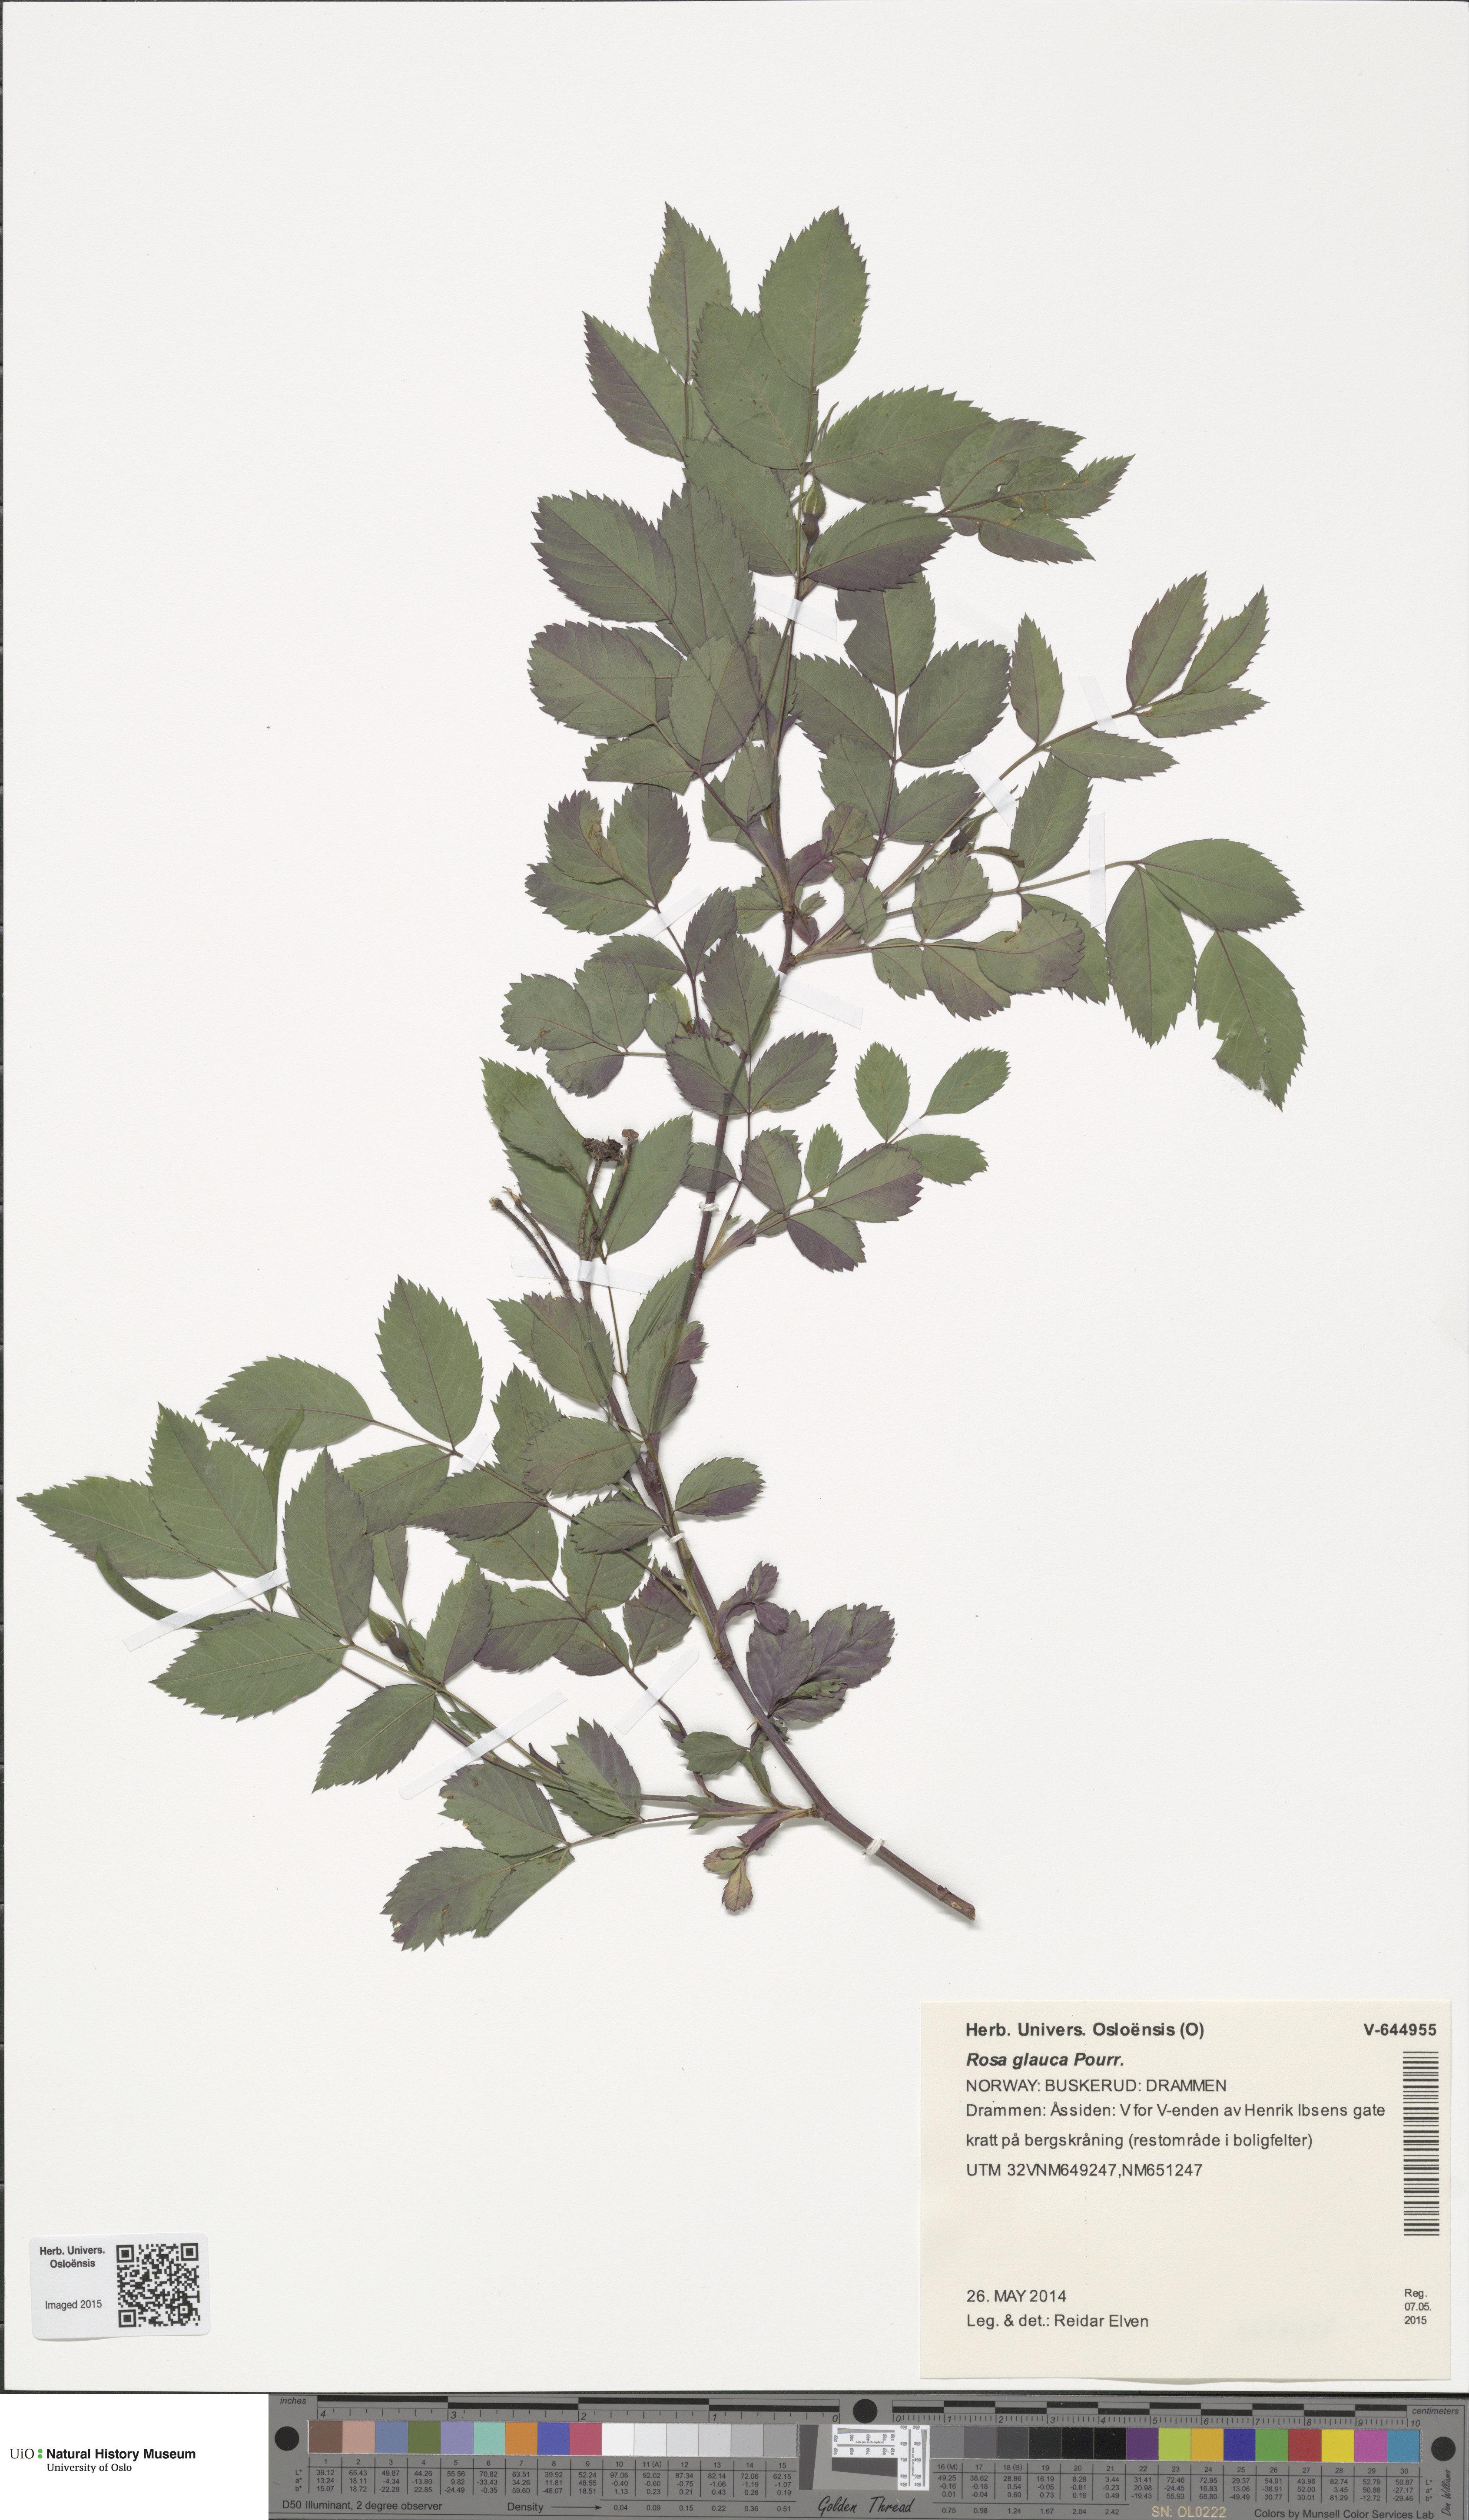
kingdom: Plantae
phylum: Tracheophyta
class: Magnoliopsida
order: Rosales
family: Rosaceae
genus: Rosa
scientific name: Rosa glauca
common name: Redleaf rose
